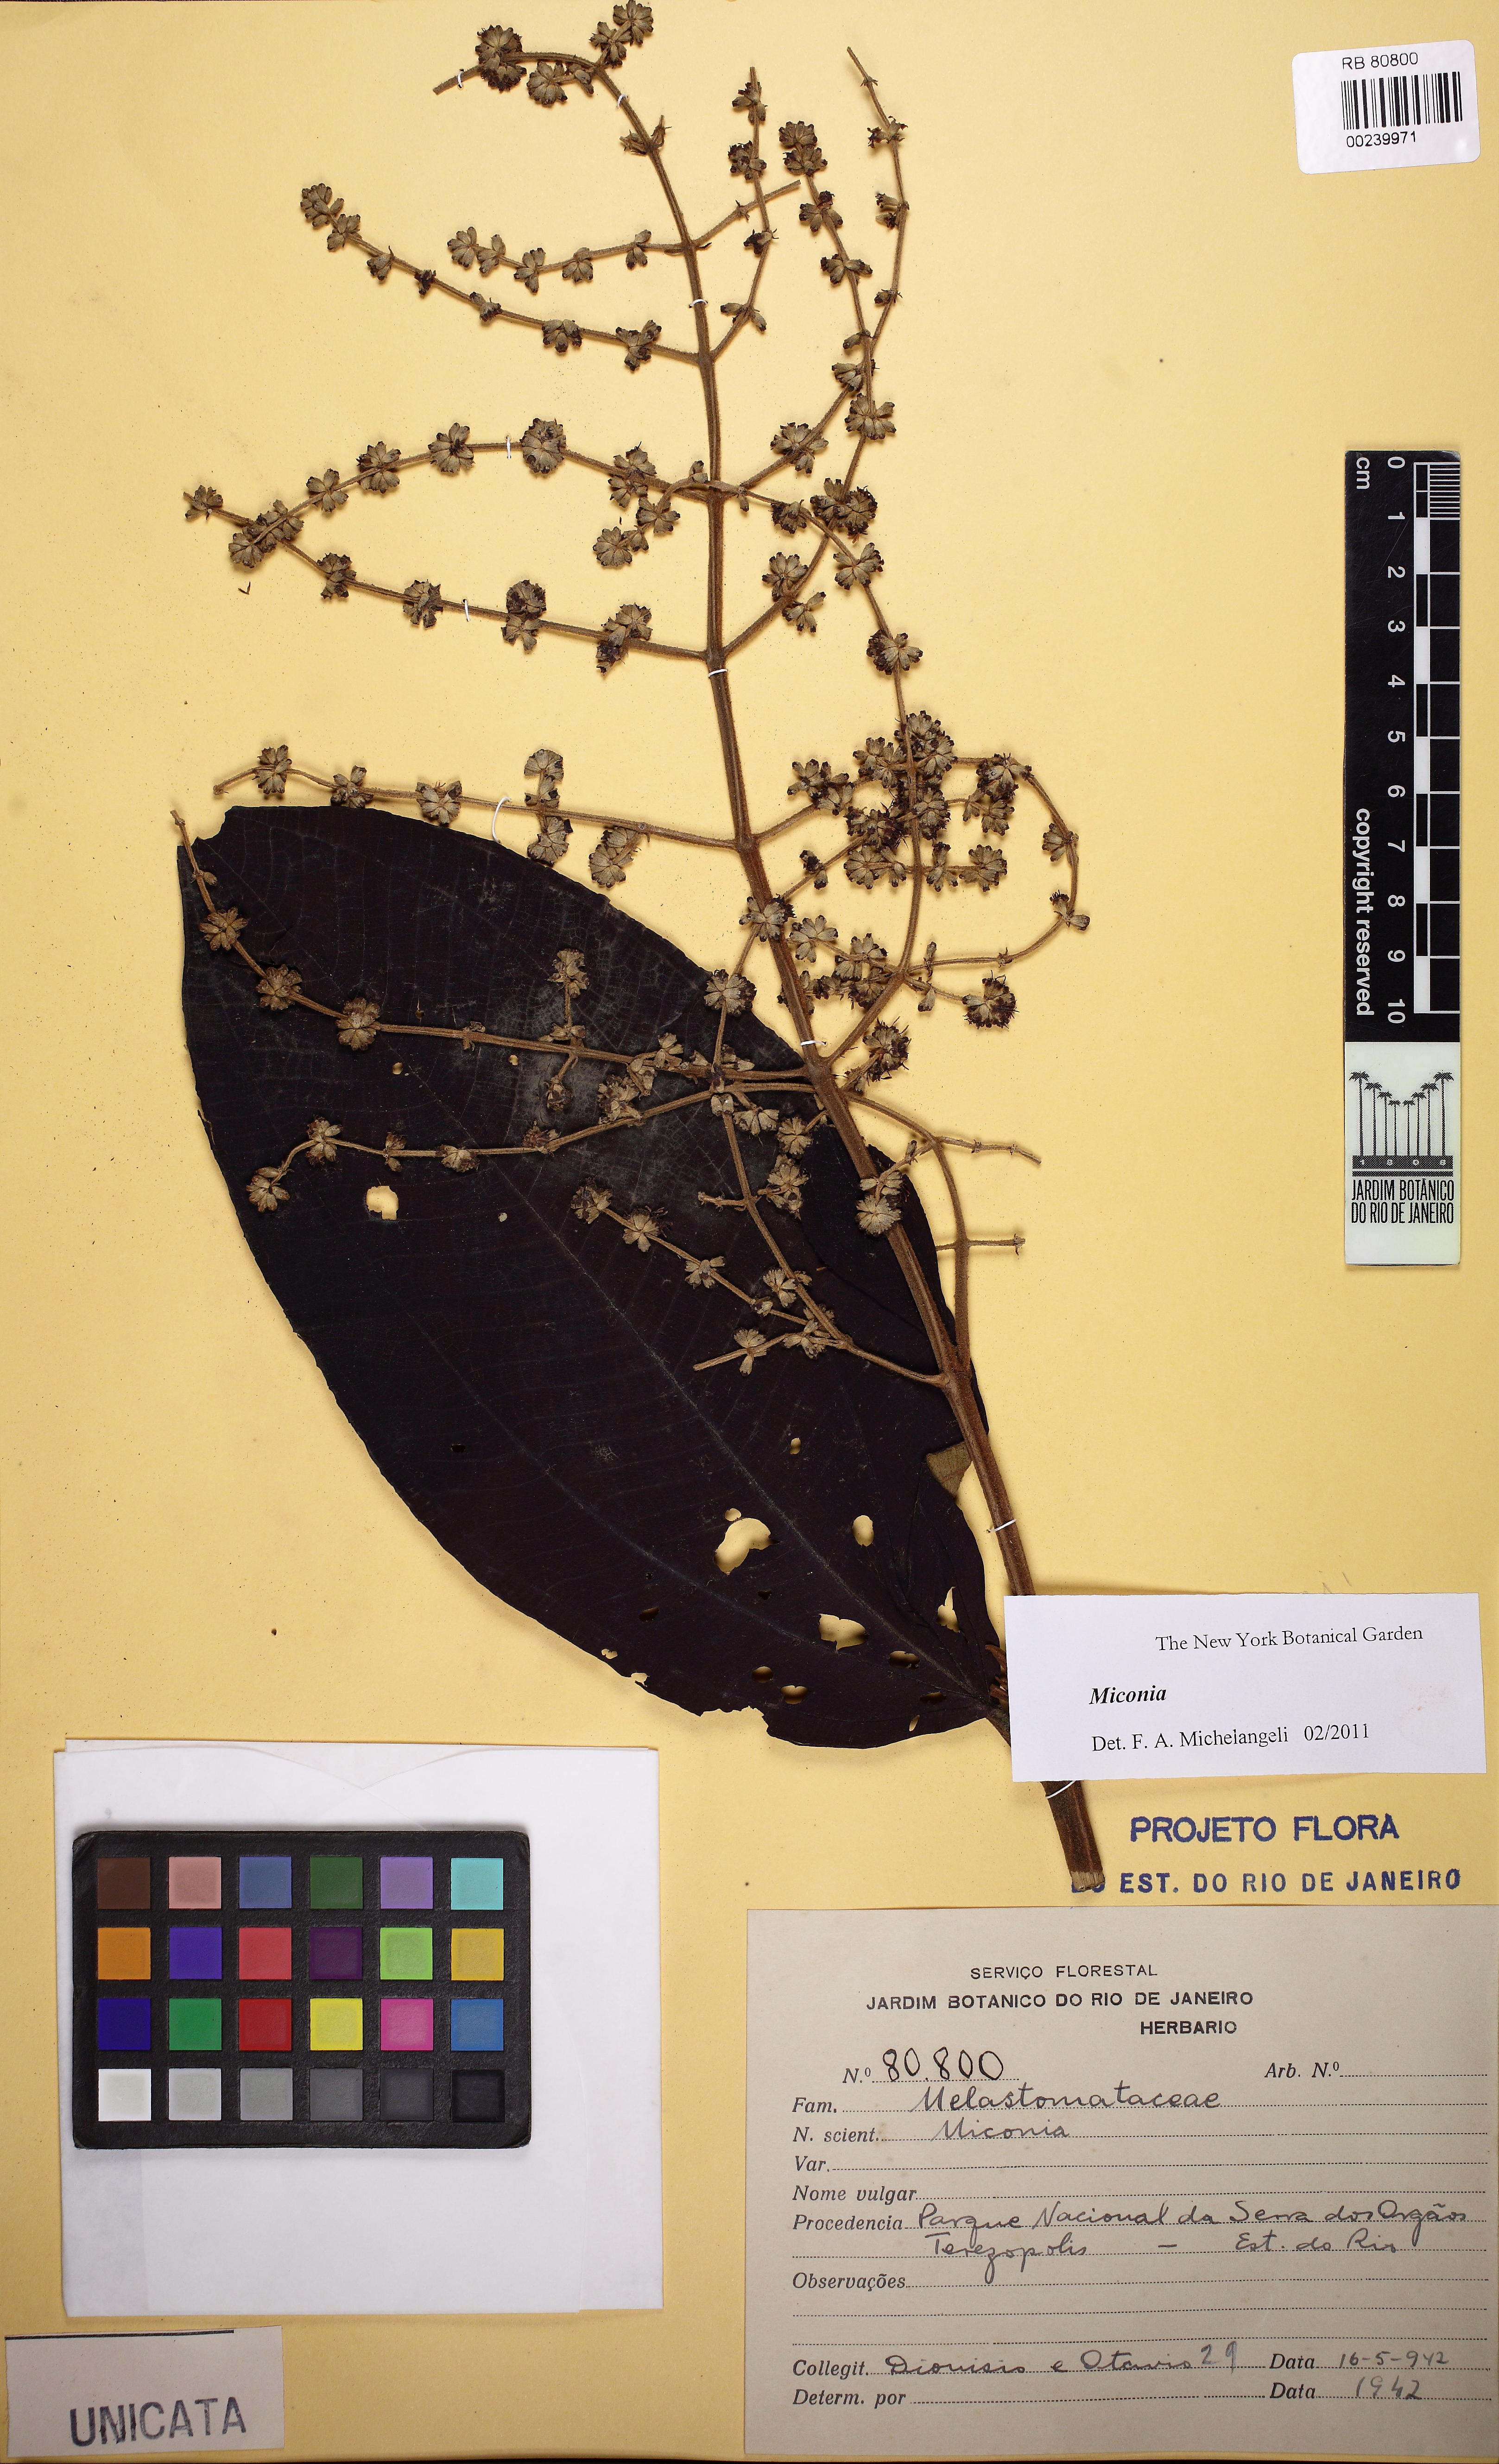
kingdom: Plantae
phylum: Tracheophyta
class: Magnoliopsida
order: Myrtales
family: Melastomataceae
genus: Miconia
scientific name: Miconia fasciculata
